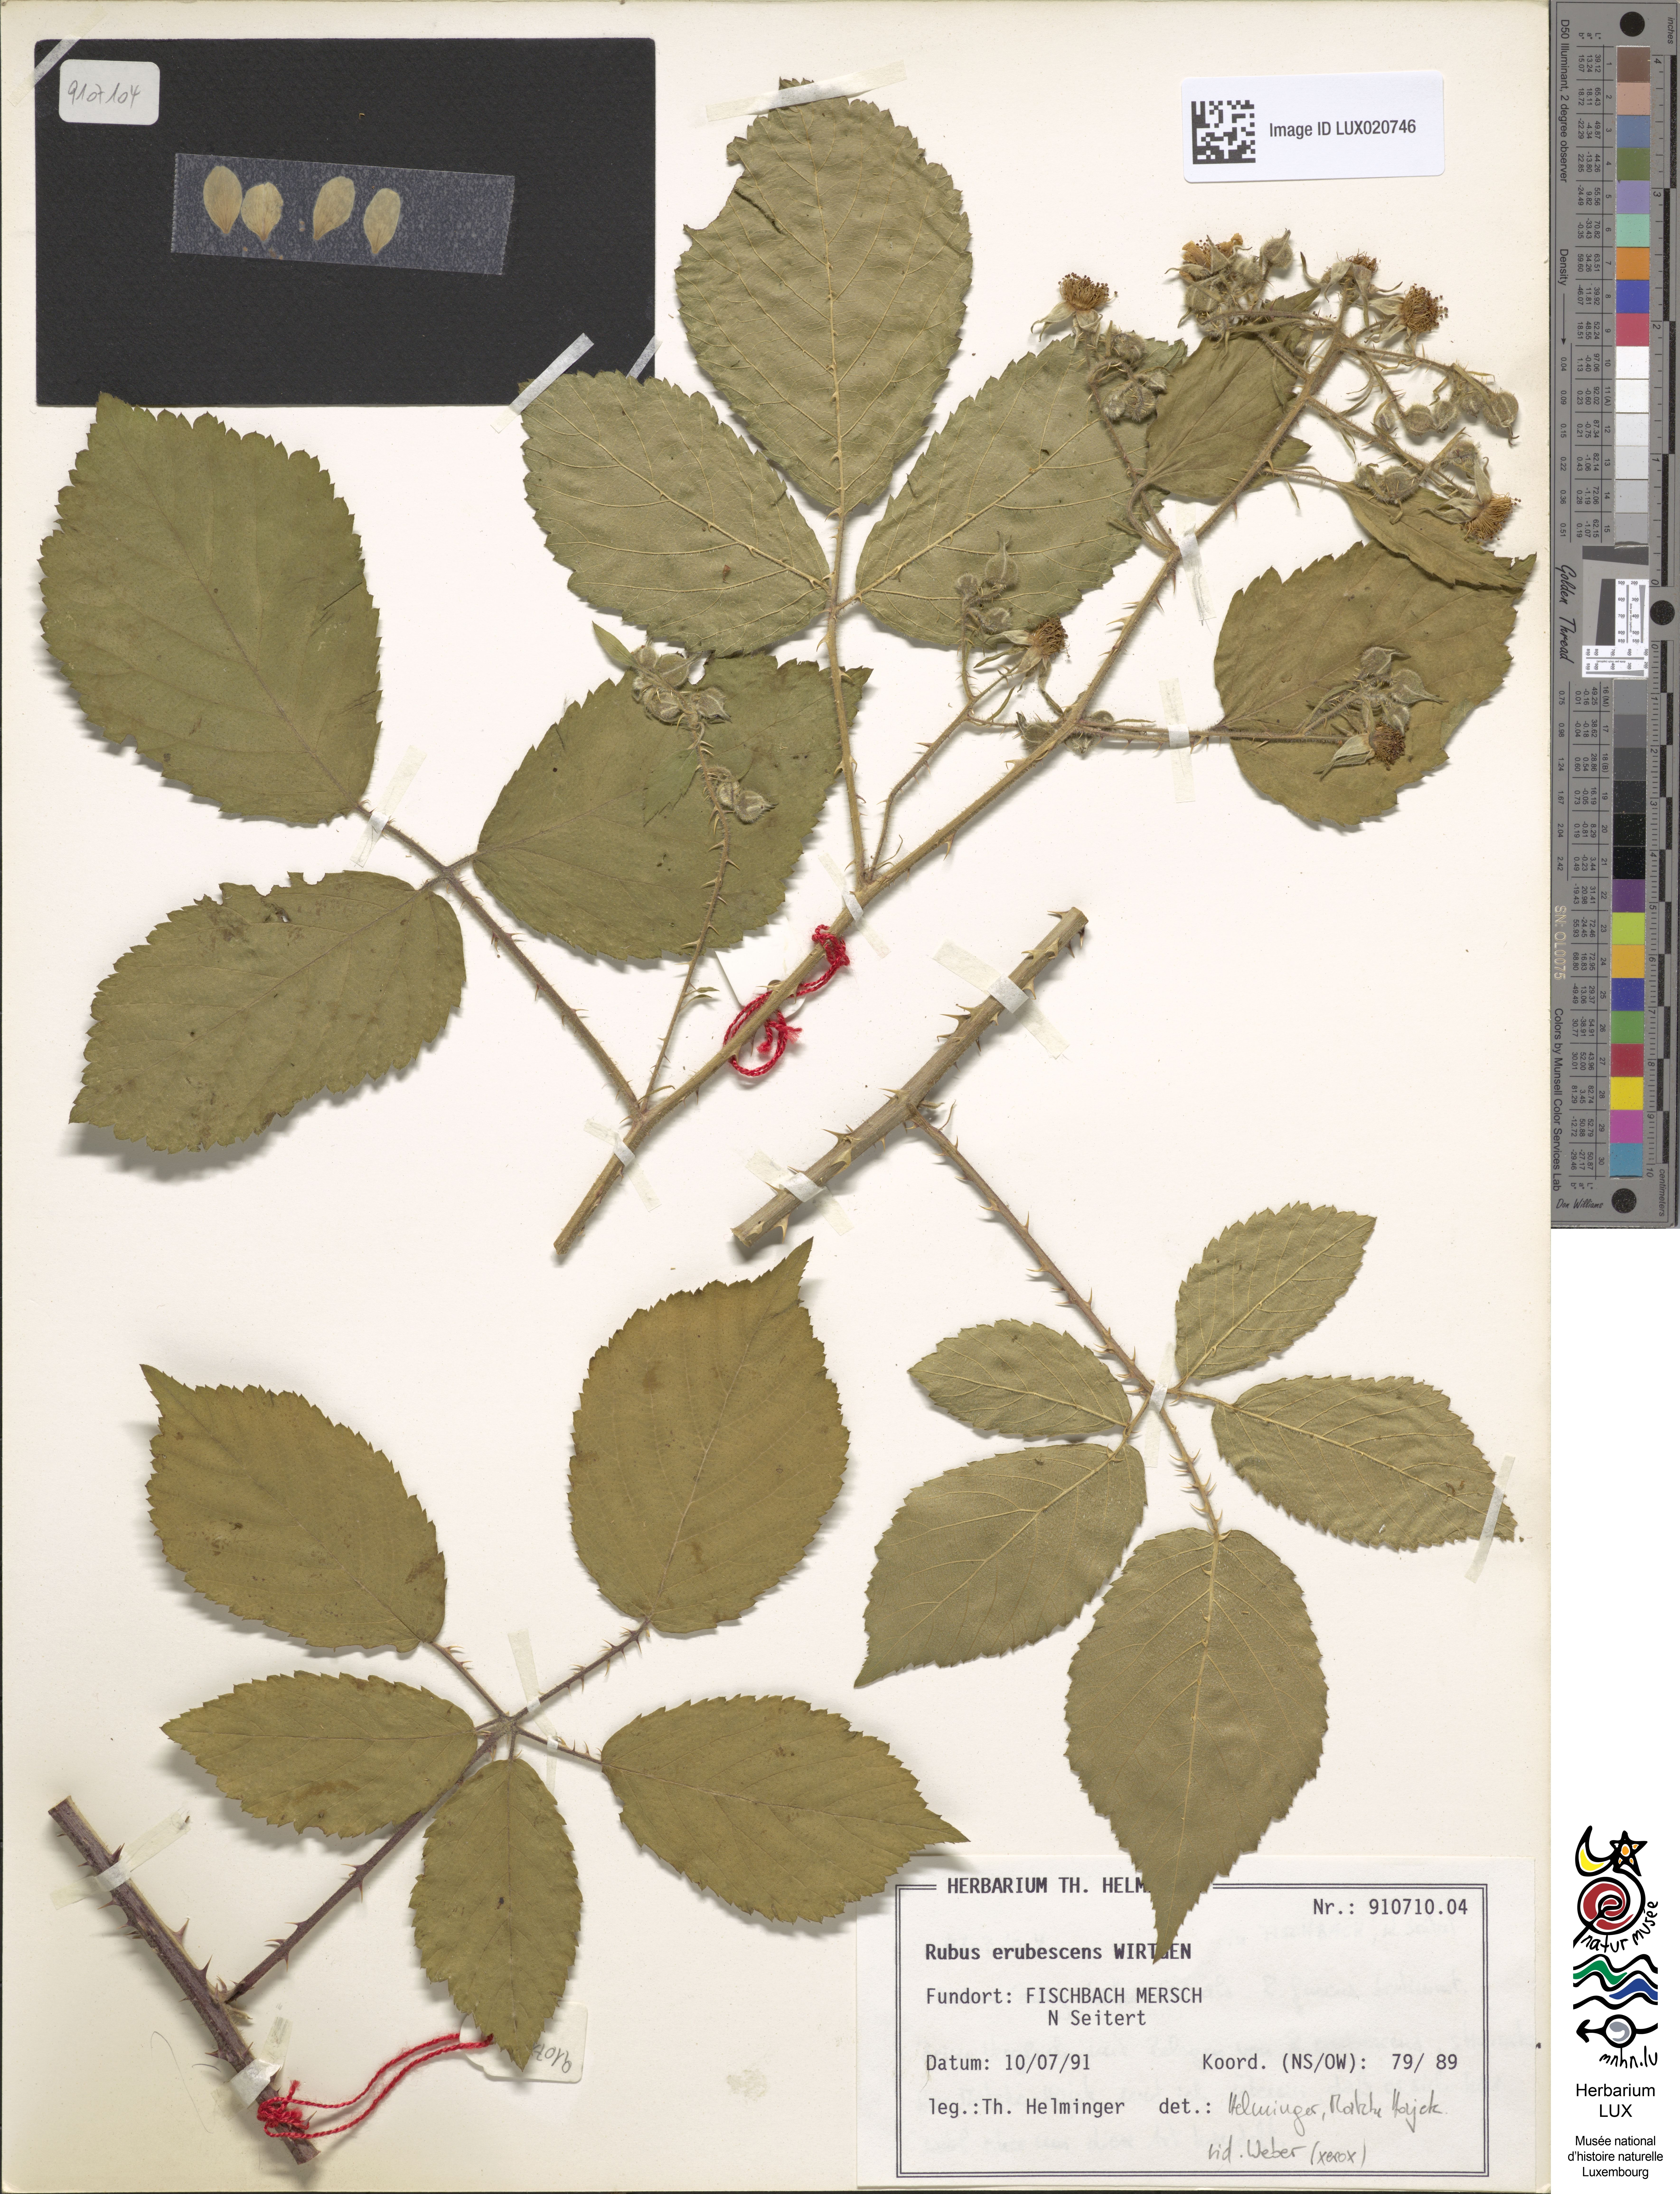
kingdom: Plantae
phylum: Tracheophyta
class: Magnoliopsida
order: Rosales
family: Rosaceae
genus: Rubus
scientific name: Rubus erubescens
